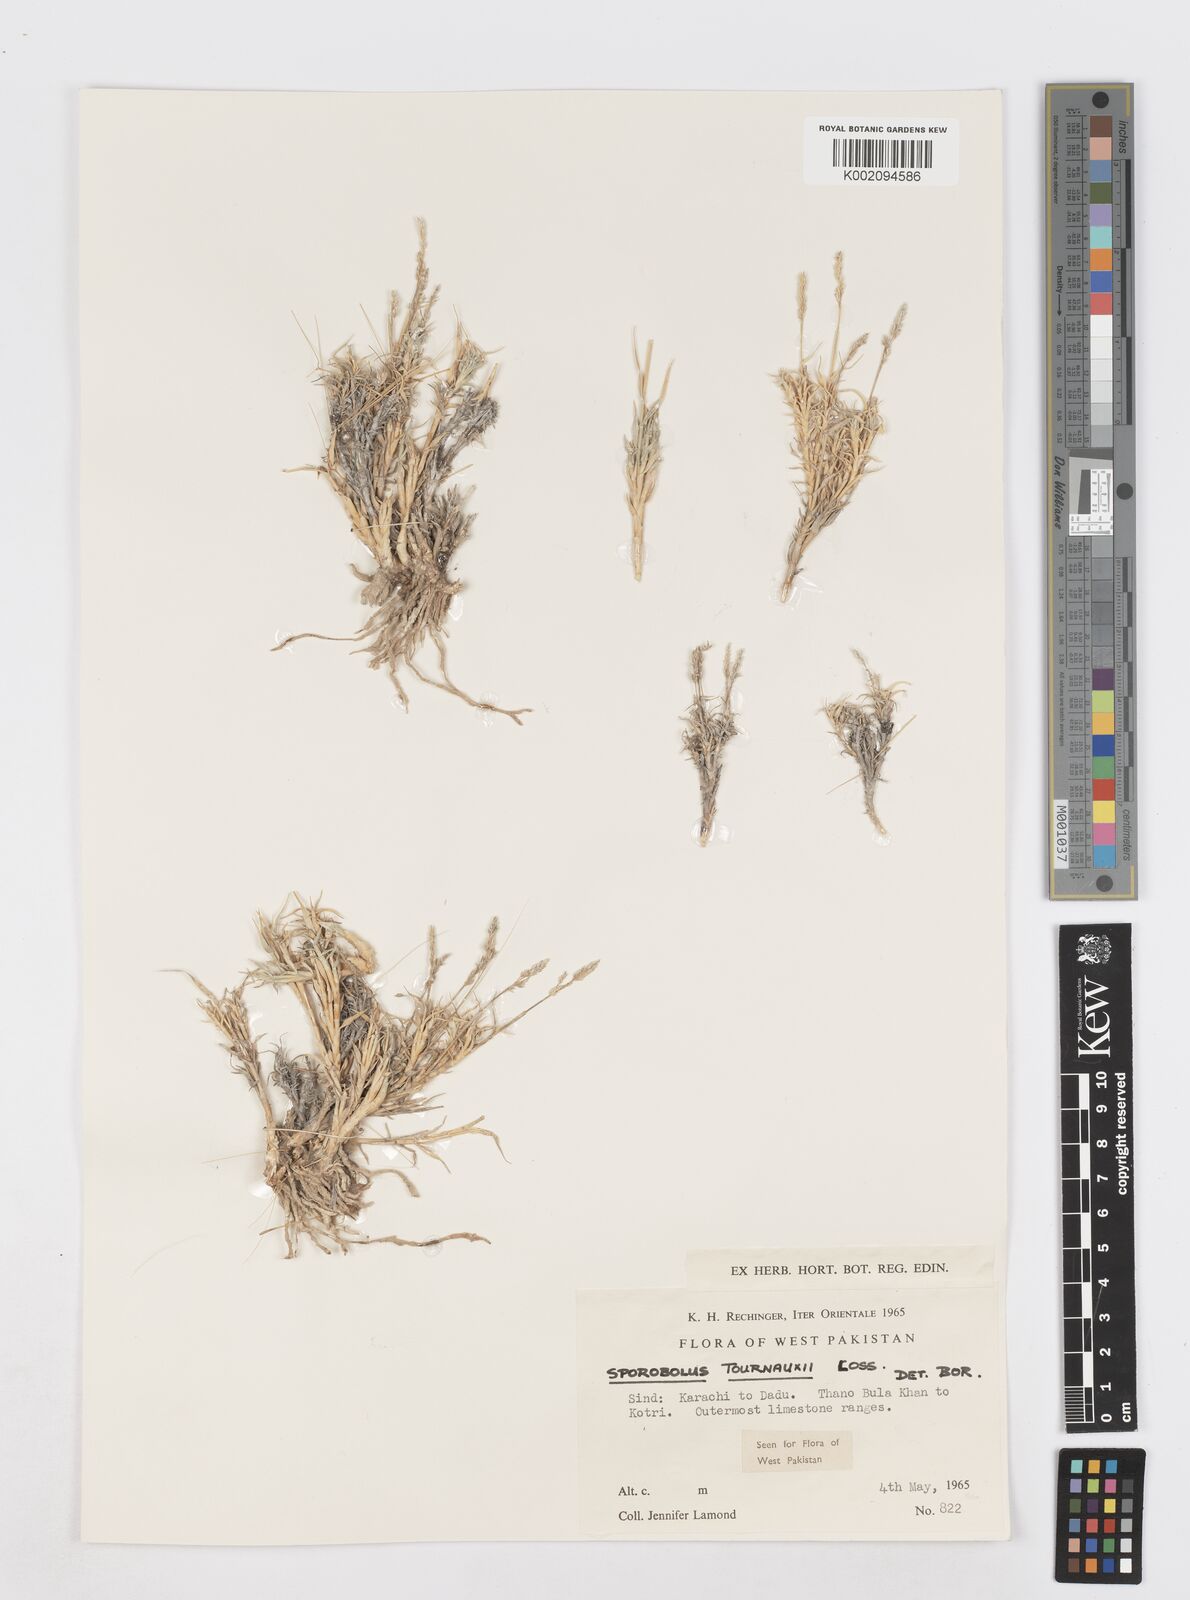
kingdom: Plantae
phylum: Tracheophyta
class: Liliopsida
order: Poales
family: Poaceae
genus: Sporobolus
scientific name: Sporobolus tourneuxii
